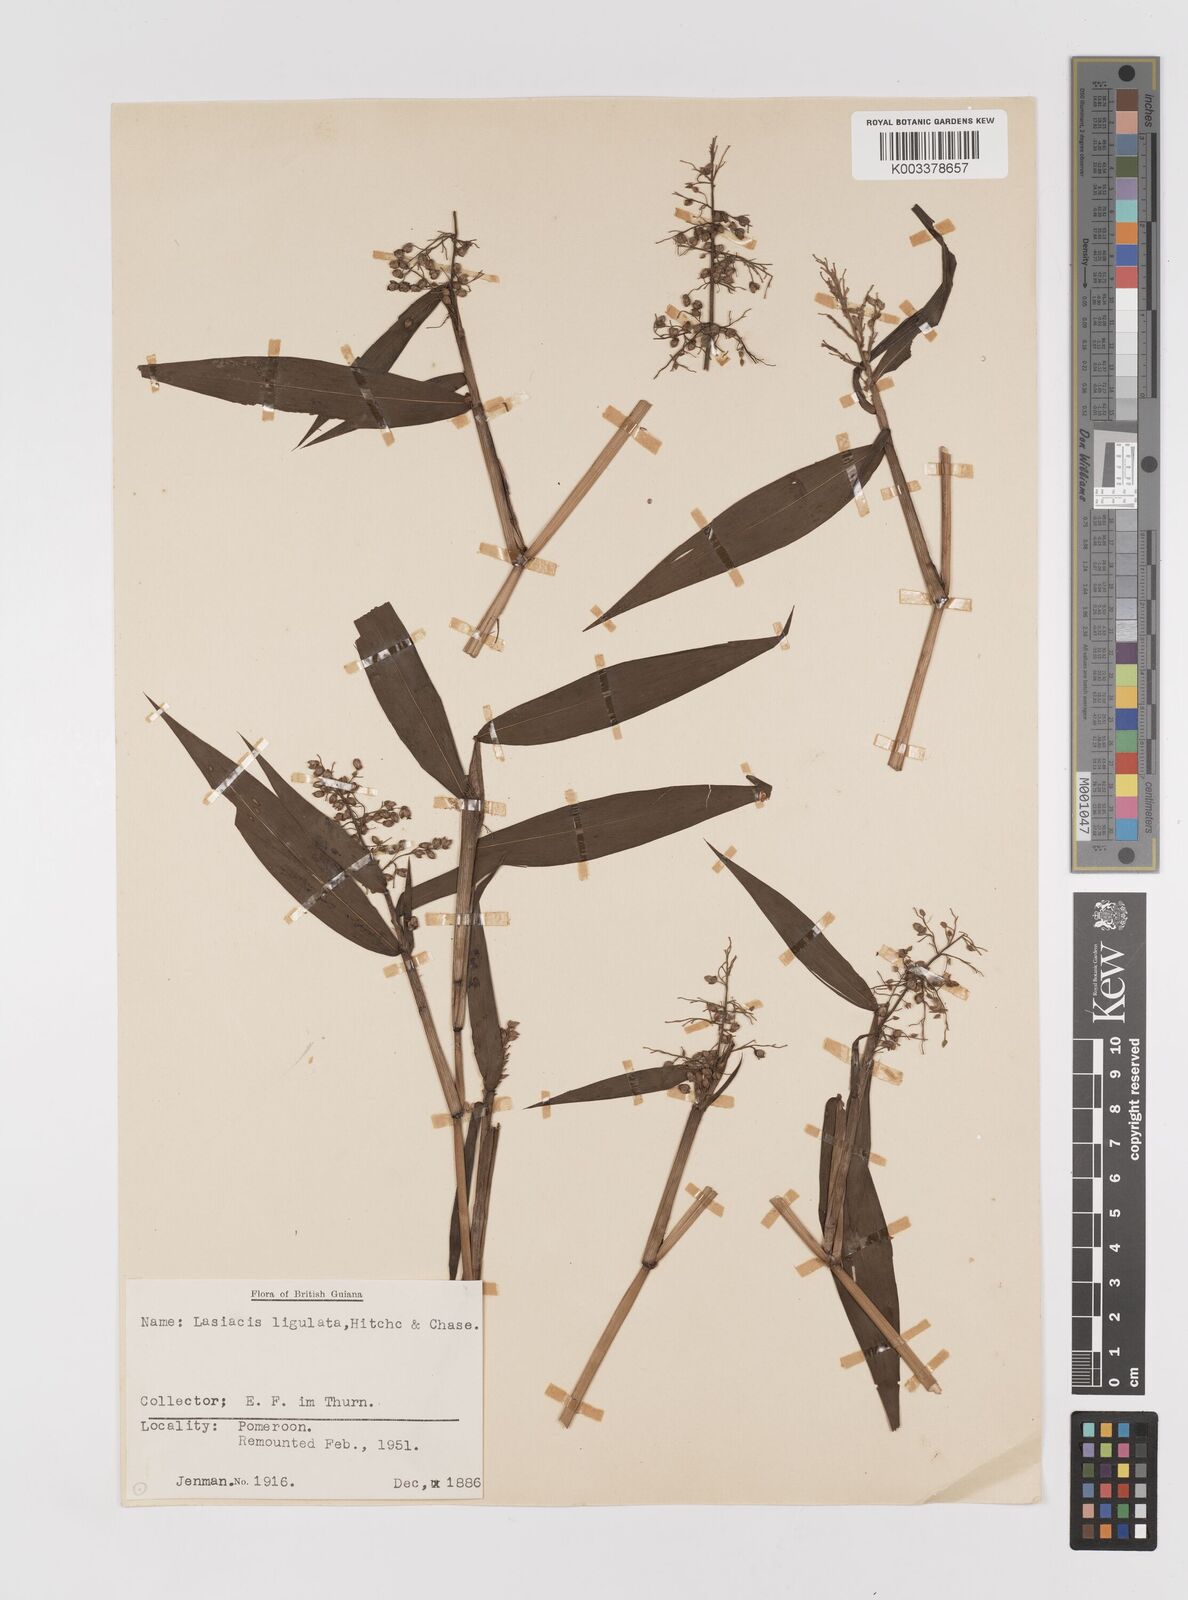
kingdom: Plantae
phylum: Tracheophyta
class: Liliopsida
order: Poales
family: Poaceae
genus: Lasiacis
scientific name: Lasiacis ligulata
